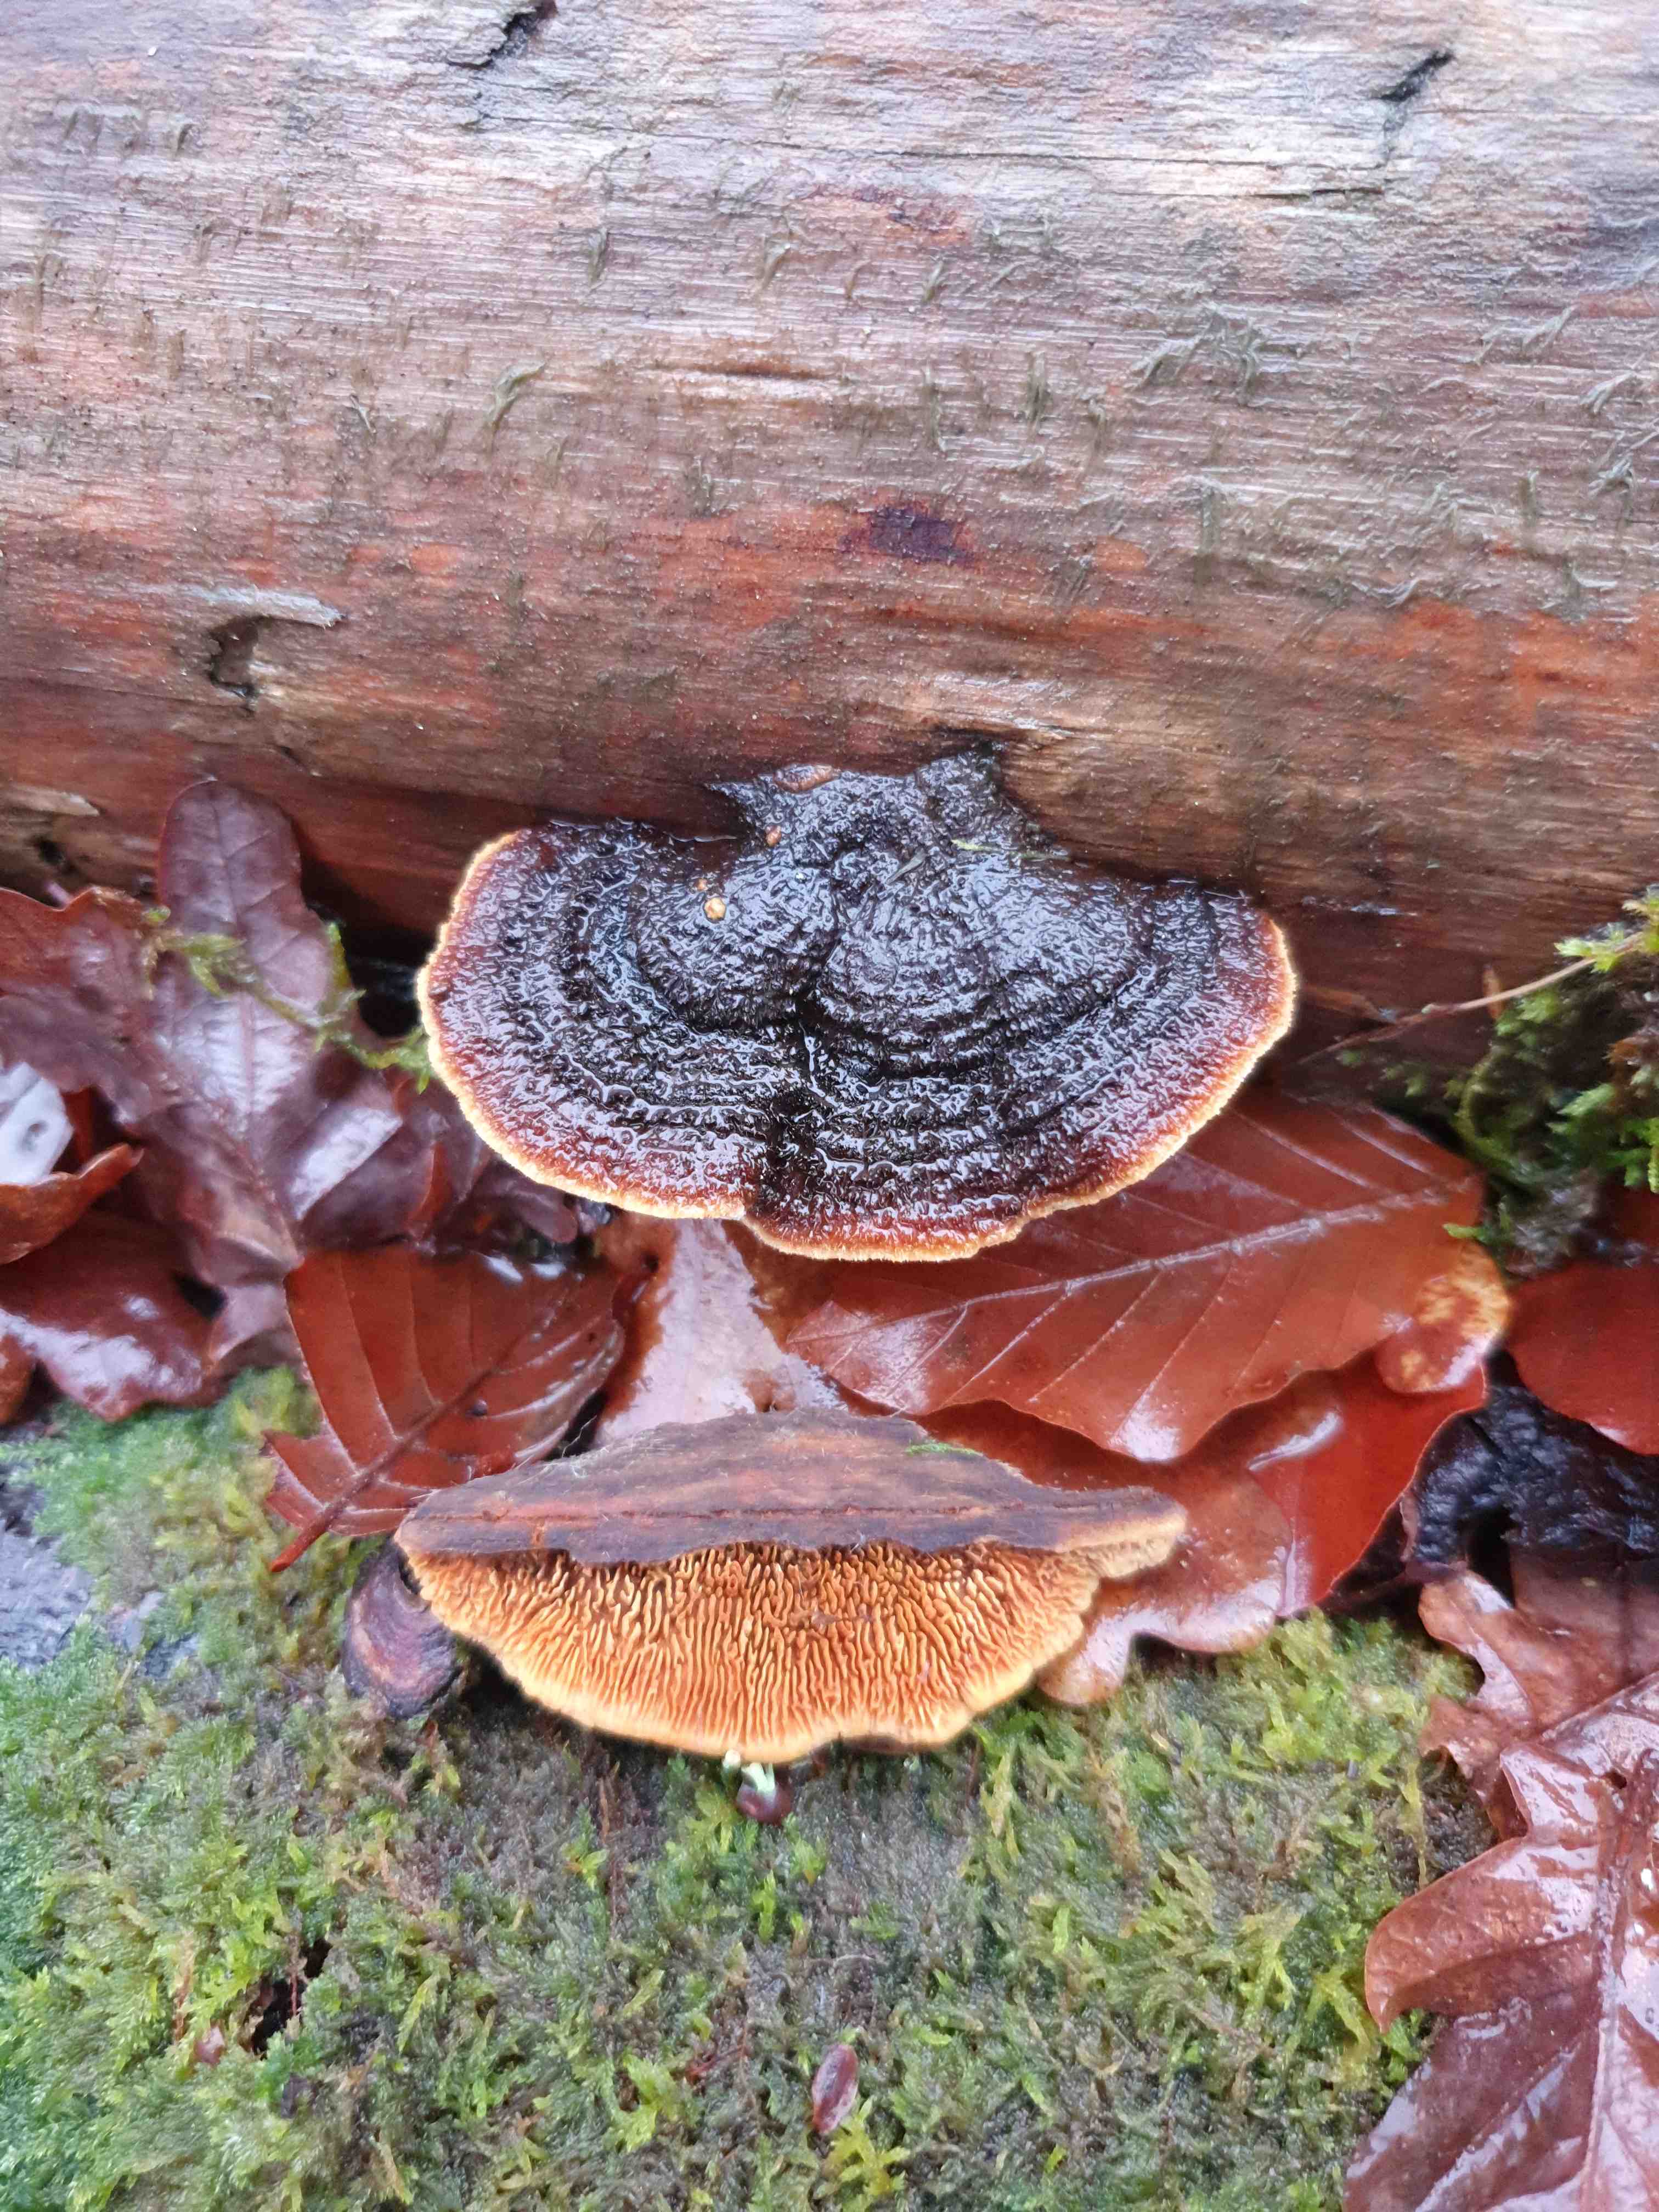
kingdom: Fungi
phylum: Basidiomycota
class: Agaricomycetes
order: Gloeophyllales
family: Gloeophyllaceae
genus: Gloeophyllum
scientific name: Gloeophyllum sepiarium
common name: fyrre-korkhat
